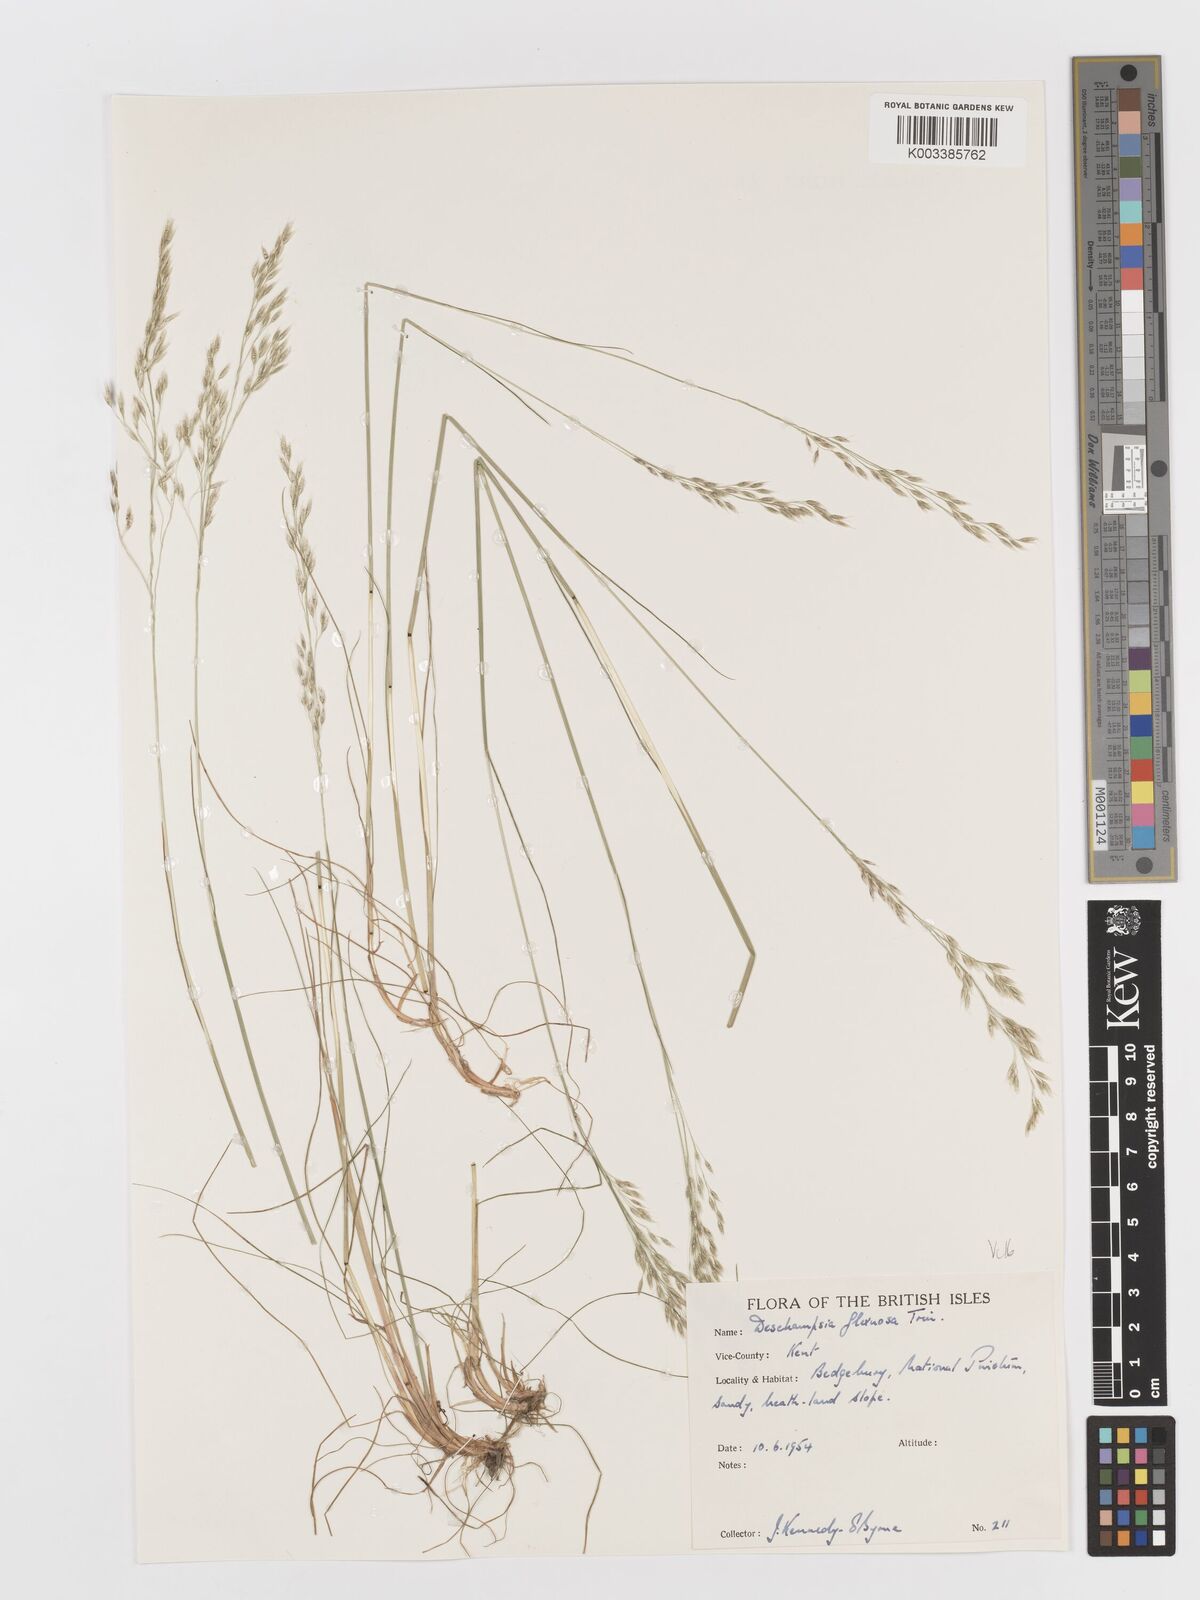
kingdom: Plantae
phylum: Tracheophyta
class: Liliopsida
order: Poales
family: Poaceae
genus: Avenella
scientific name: Avenella flexuosa
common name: Wavy hairgrass
